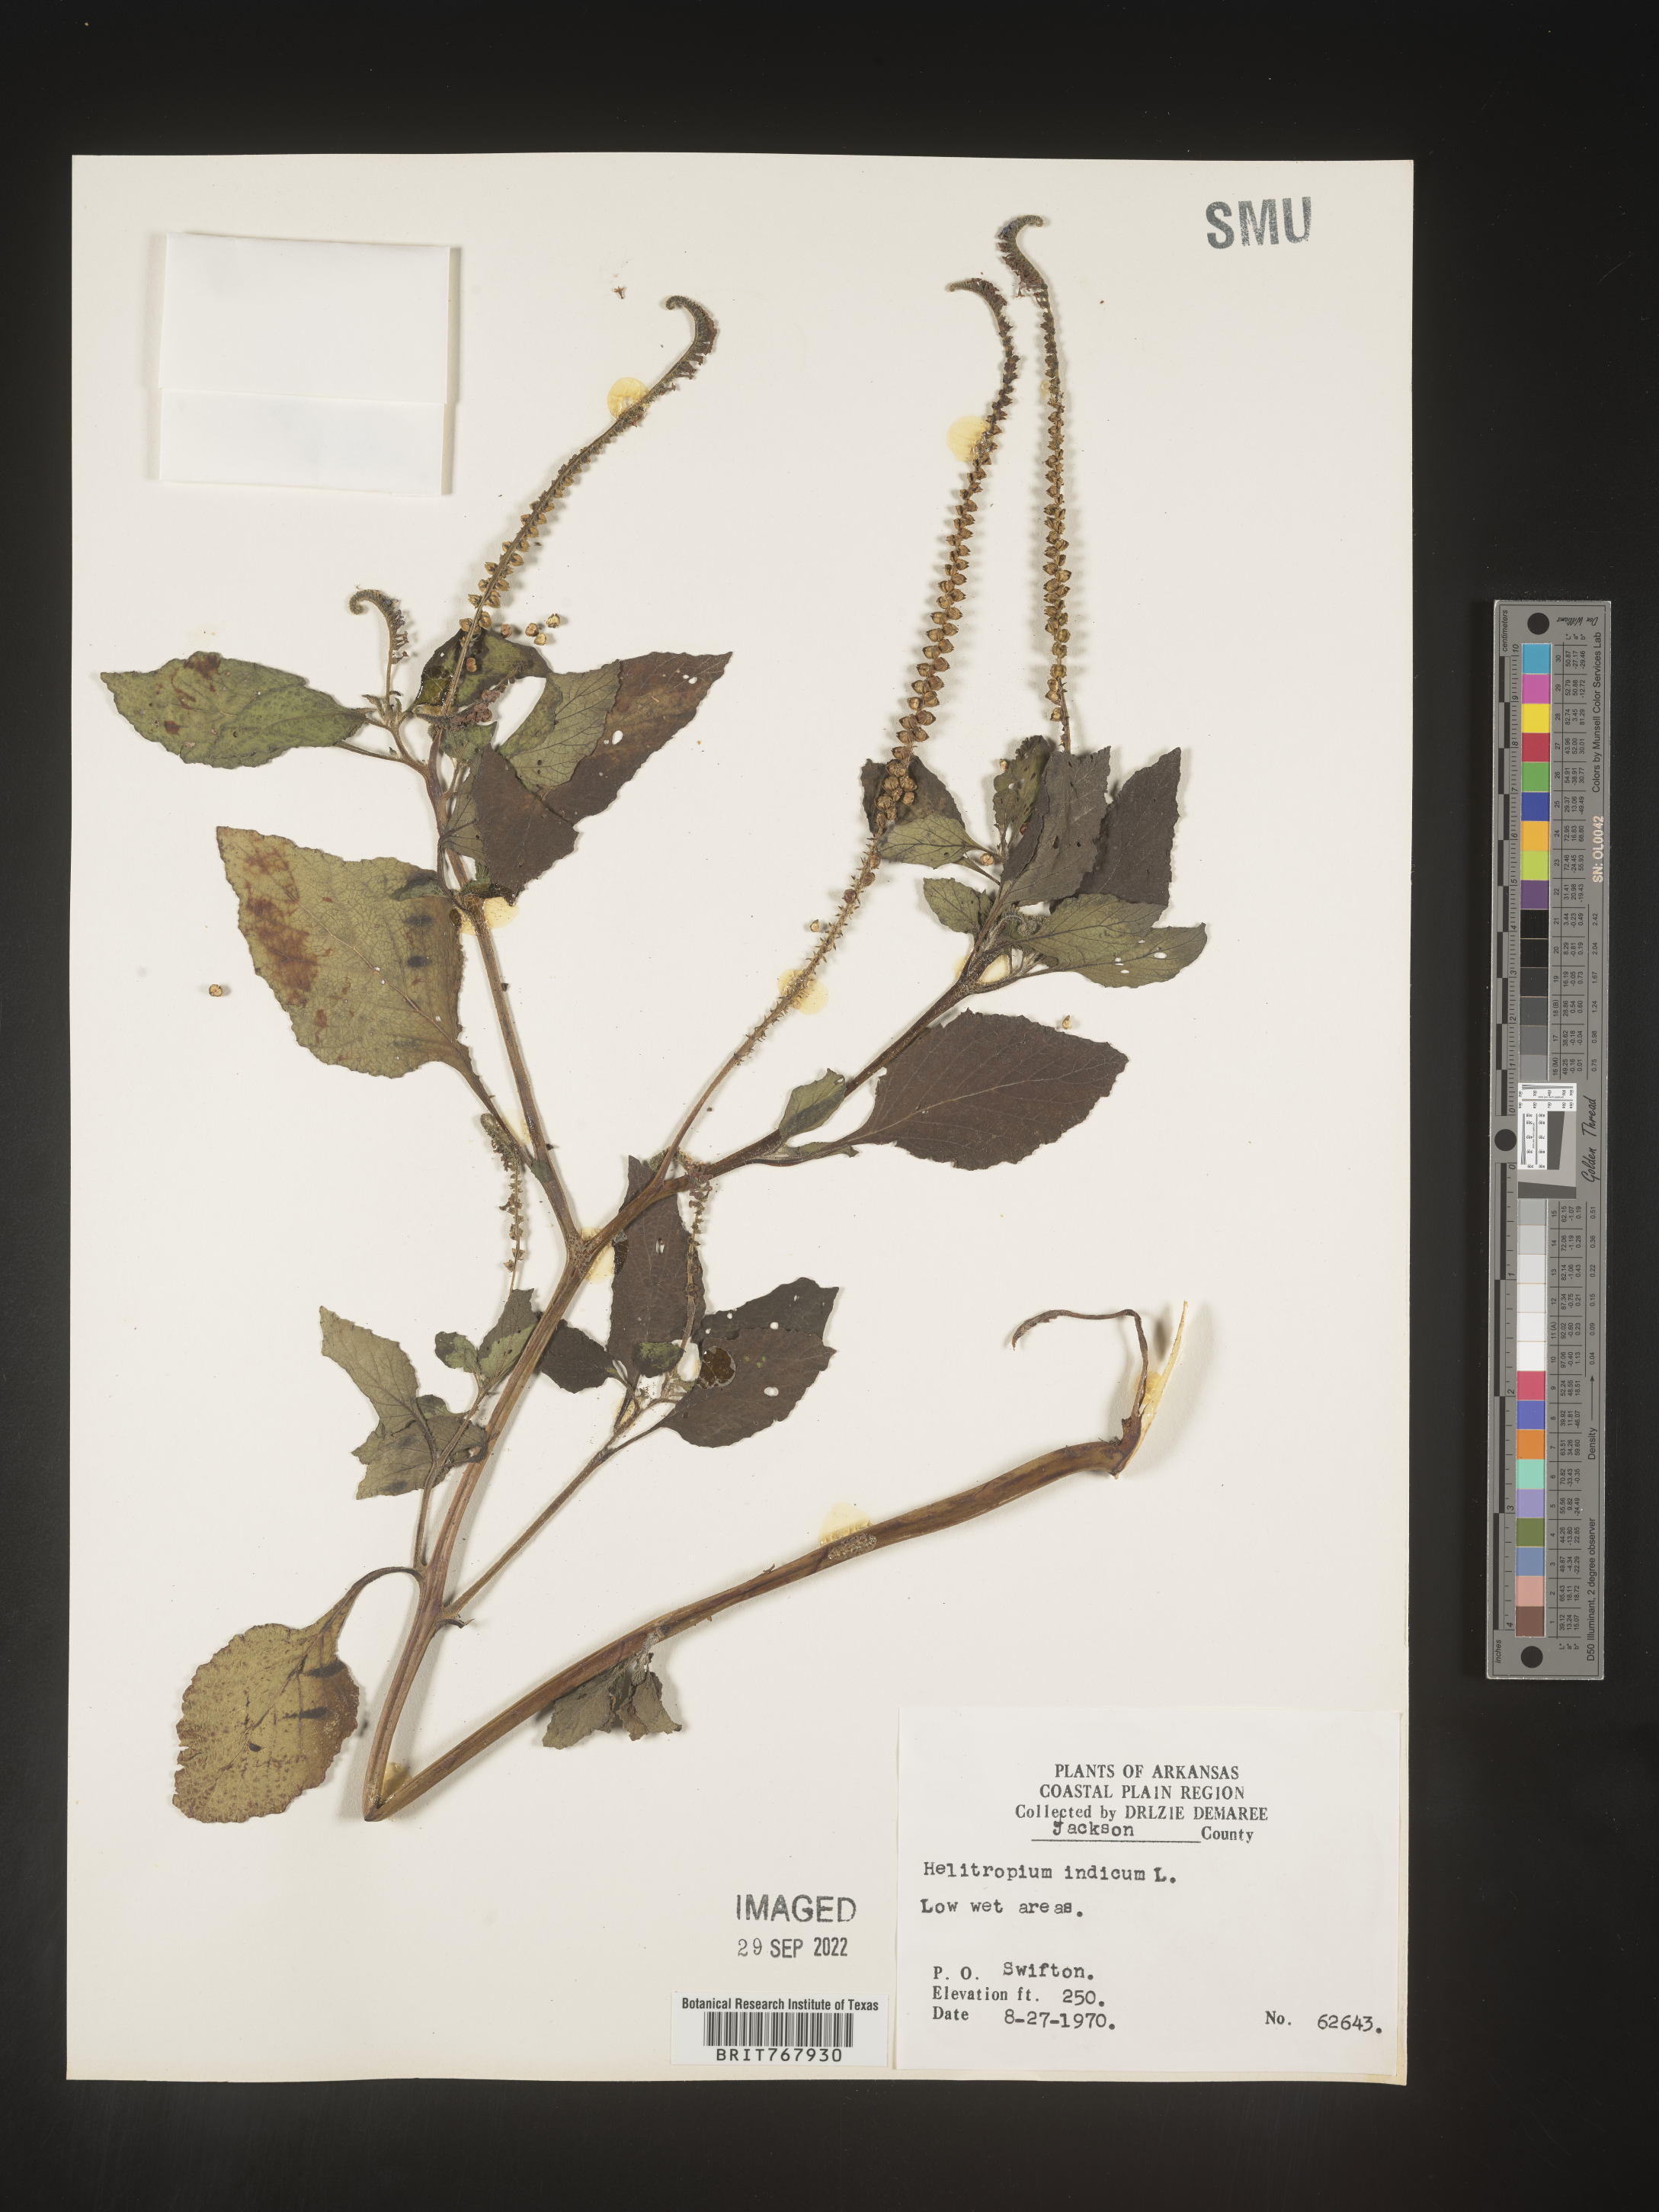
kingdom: Plantae
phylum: Tracheophyta
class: Magnoliopsida
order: Boraginales
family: Heliotropiaceae
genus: Heliotropium
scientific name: Heliotropium indicum
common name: Indian heliotrope
